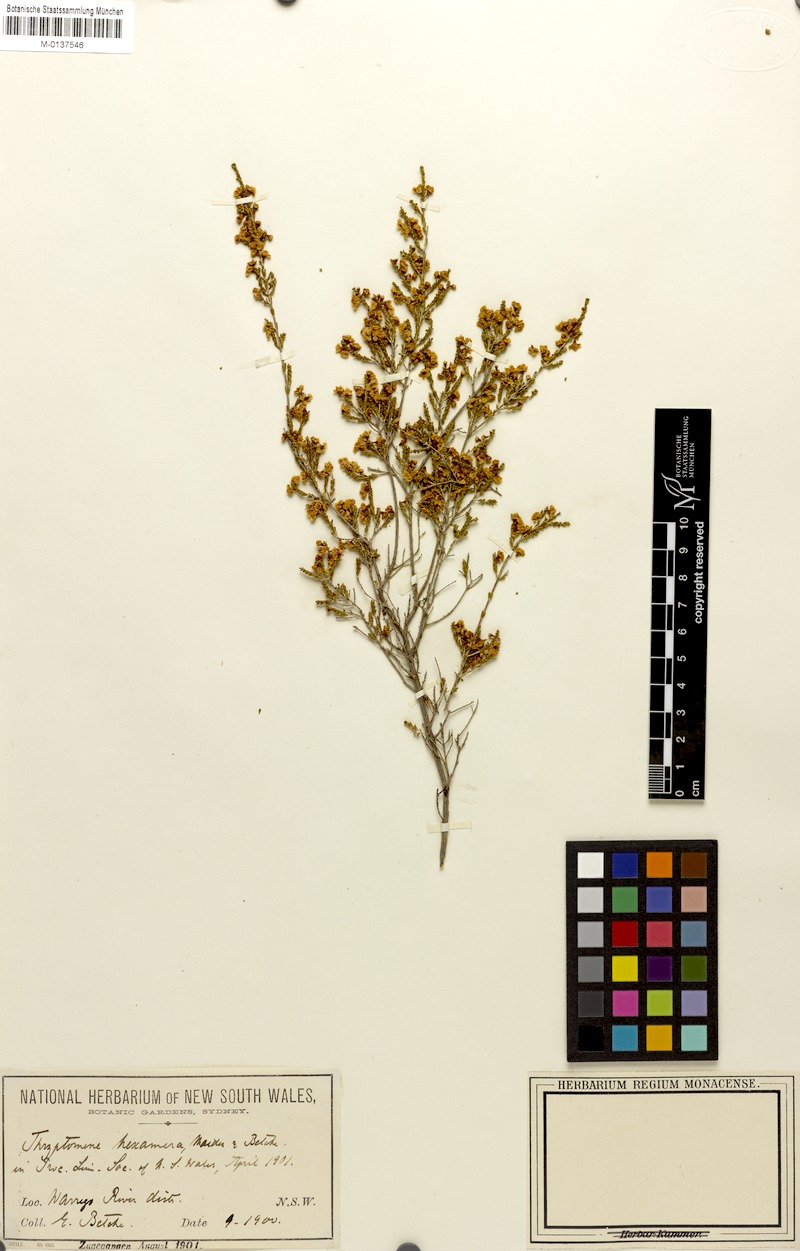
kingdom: Plantae
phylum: Tracheophyta
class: Magnoliopsida
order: Myrtales
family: Myrtaceae
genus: Micromyrtus
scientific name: Micromyrtus hexamera
